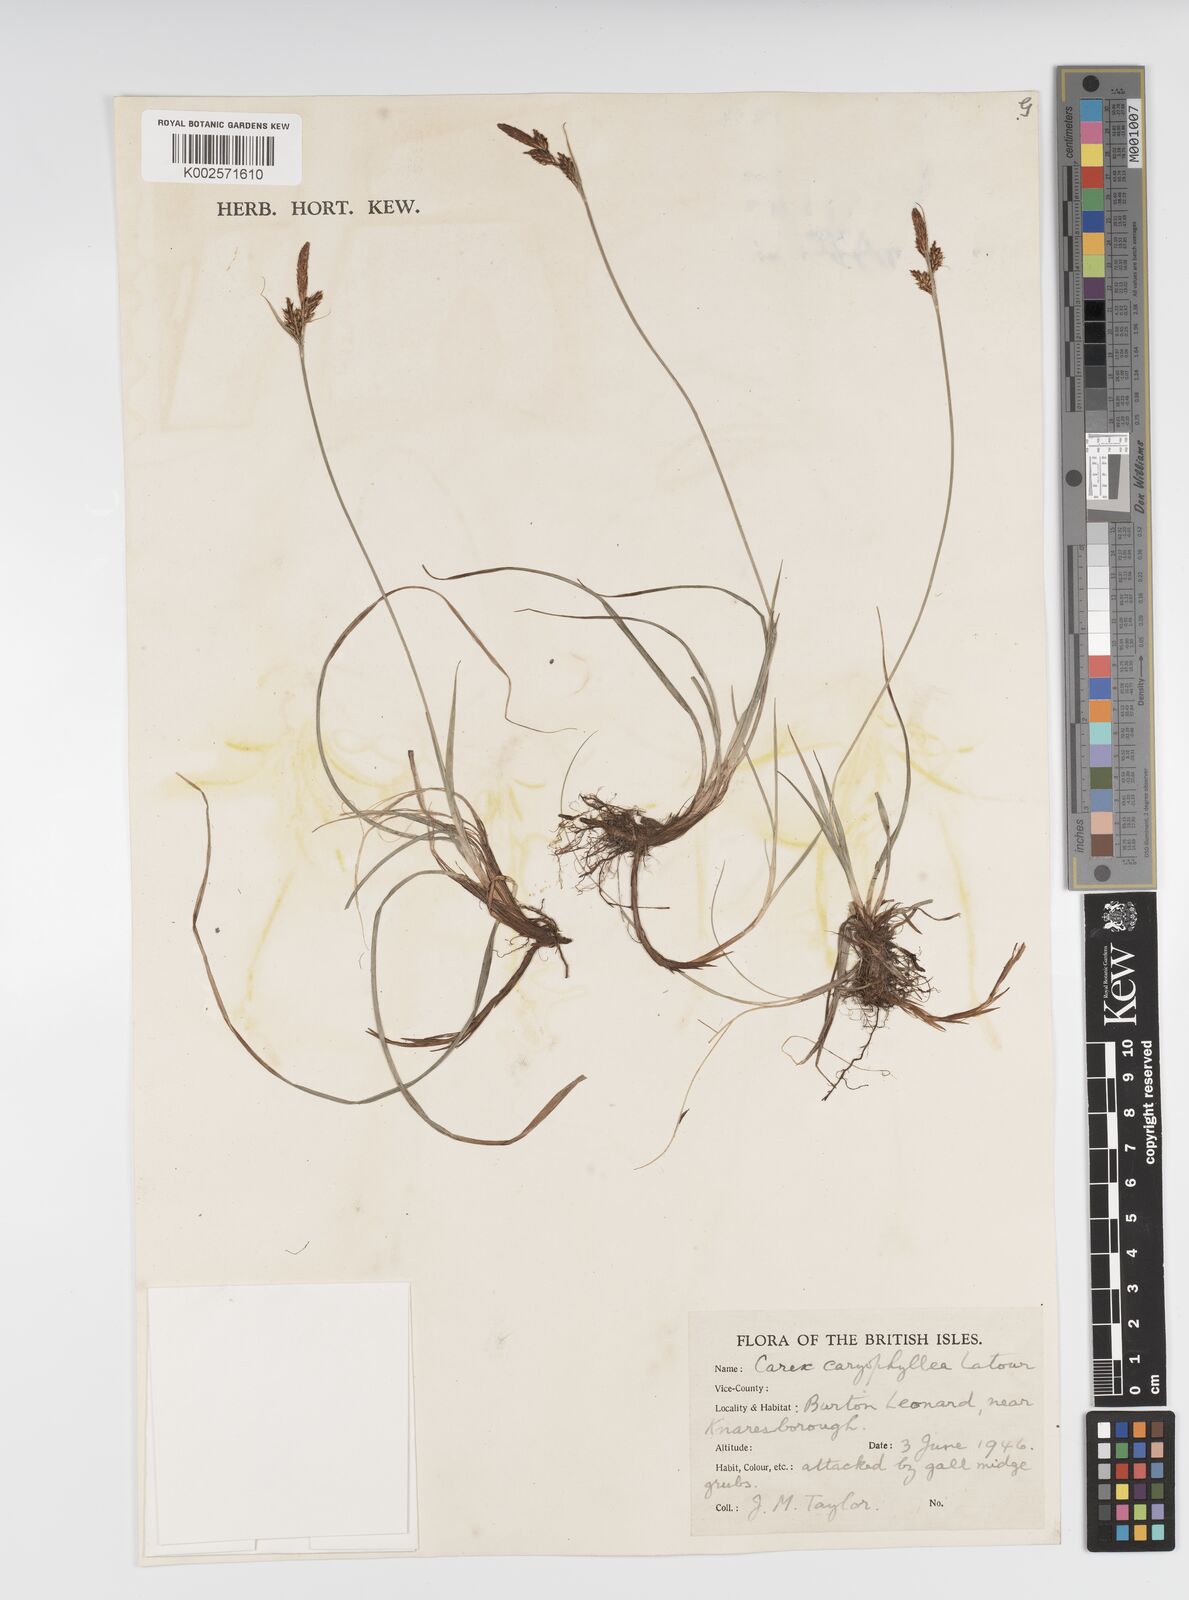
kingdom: Plantae
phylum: Tracheophyta
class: Liliopsida
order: Poales
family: Cyperaceae
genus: Carex
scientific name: Carex caryophyllea
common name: Spring sedge
